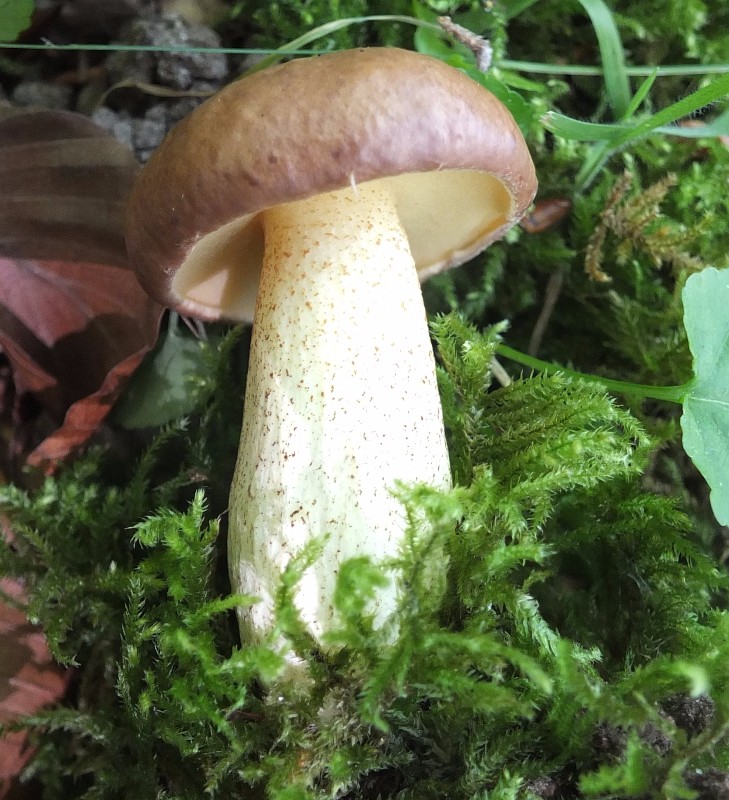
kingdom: Fungi
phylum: Basidiomycota
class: Agaricomycetes
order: Boletales
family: Suillaceae
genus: Suillus
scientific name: Suillus granulatus
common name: kornet slimrørhat
